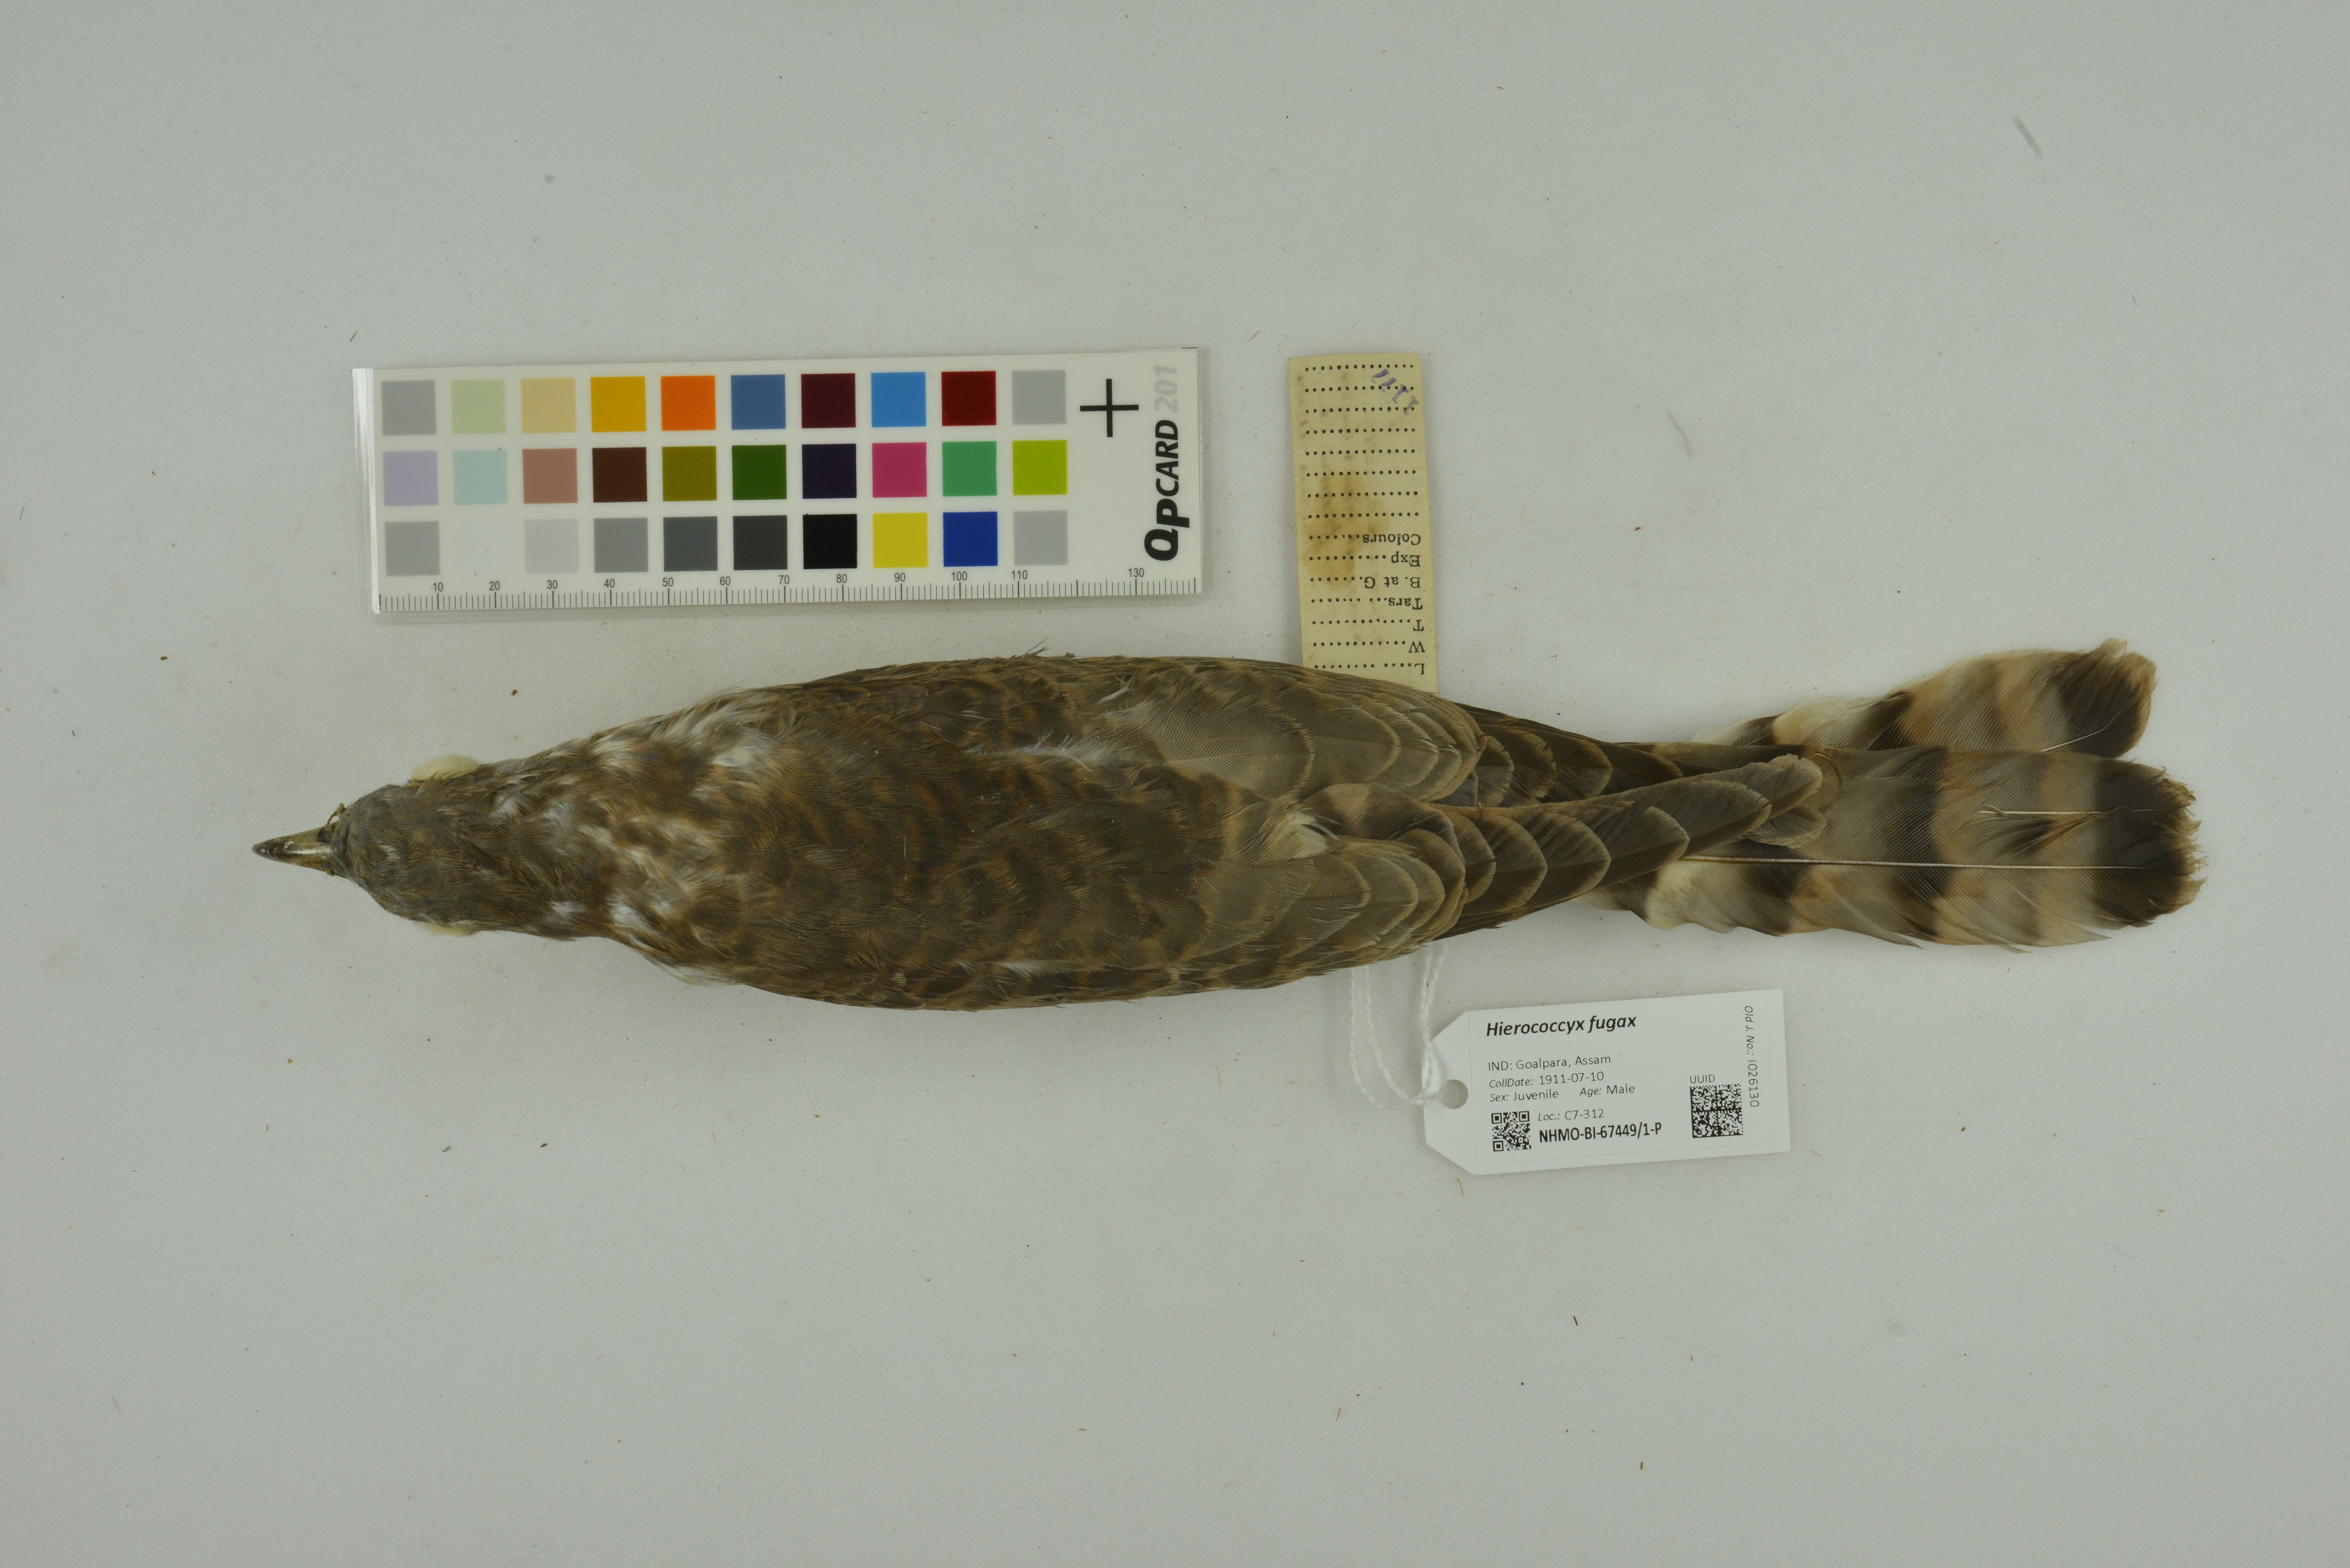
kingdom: Animalia
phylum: Chordata
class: Aves
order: Cuculiformes
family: Cuculidae
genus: Cuculus
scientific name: Cuculus fugax
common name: Hodgson's hawk-cuckoo
